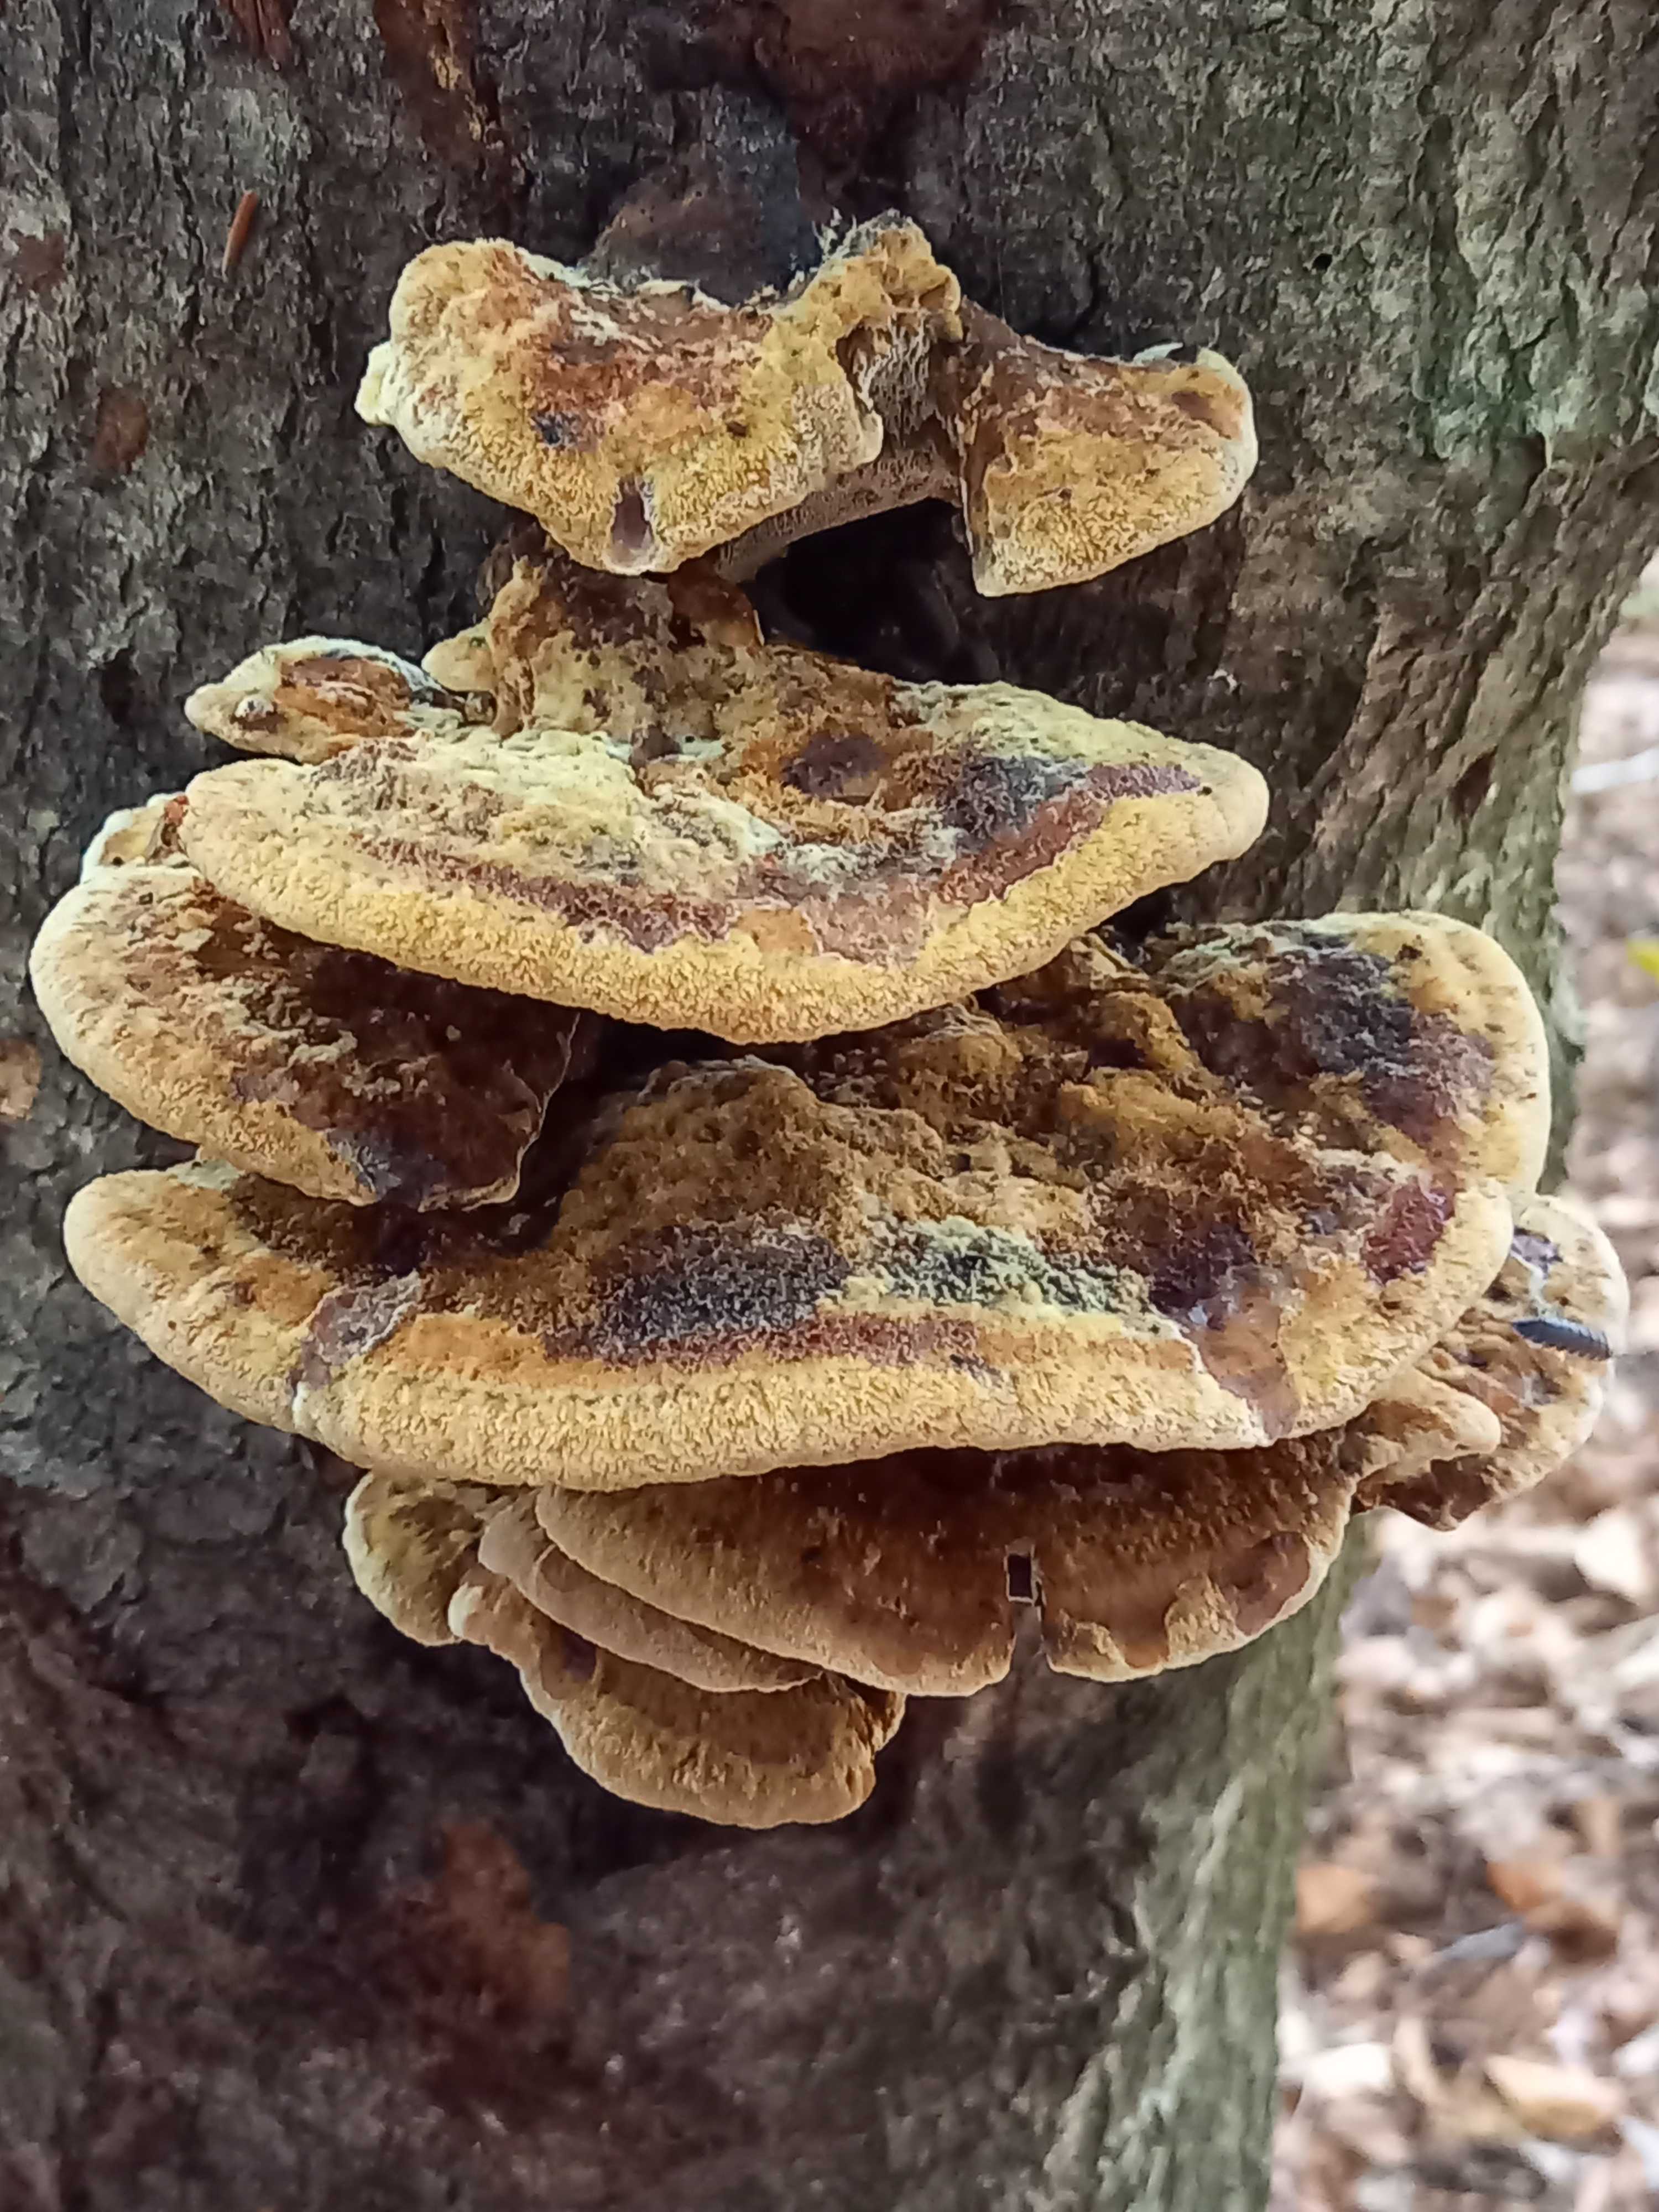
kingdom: Fungi
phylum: Basidiomycota
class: Agaricomycetes
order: Hymenochaetales
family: Hymenochaetaceae
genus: Inonotus
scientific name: Inonotus cuticularis
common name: kroghåret spejlporesvamp
